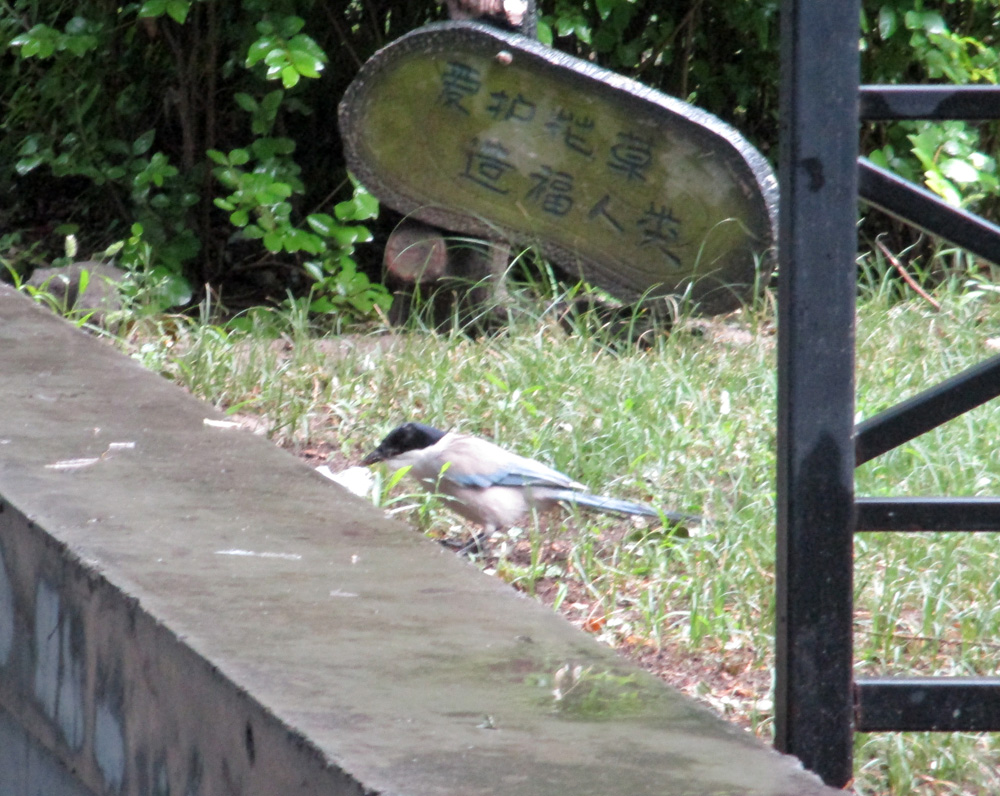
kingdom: Animalia
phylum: Chordata
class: Aves
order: Passeriformes
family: Corvidae
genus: Cyanopica
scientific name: Cyanopica cyanus
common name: Azure-winged magpie
